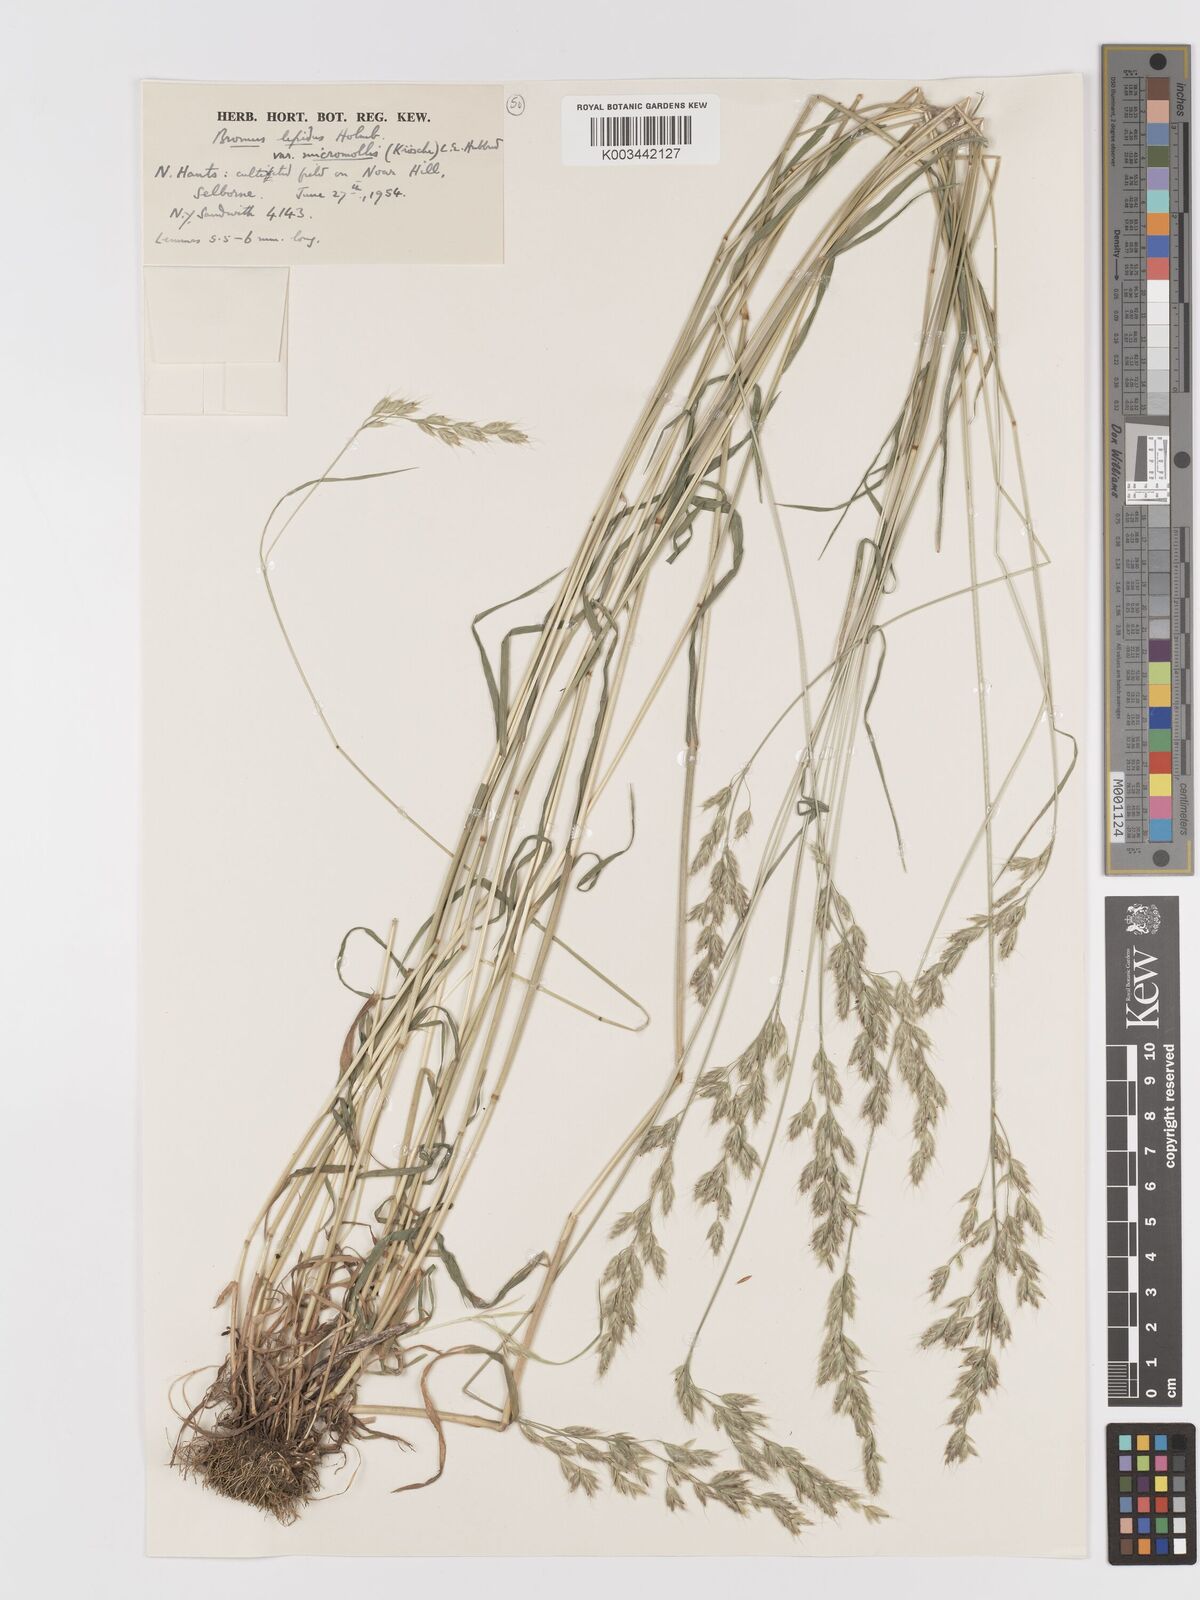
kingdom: Plantae
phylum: Tracheophyta
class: Liliopsida
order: Poales
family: Poaceae
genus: Bromus
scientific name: Bromus lepidus
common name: Slender soft-brome
